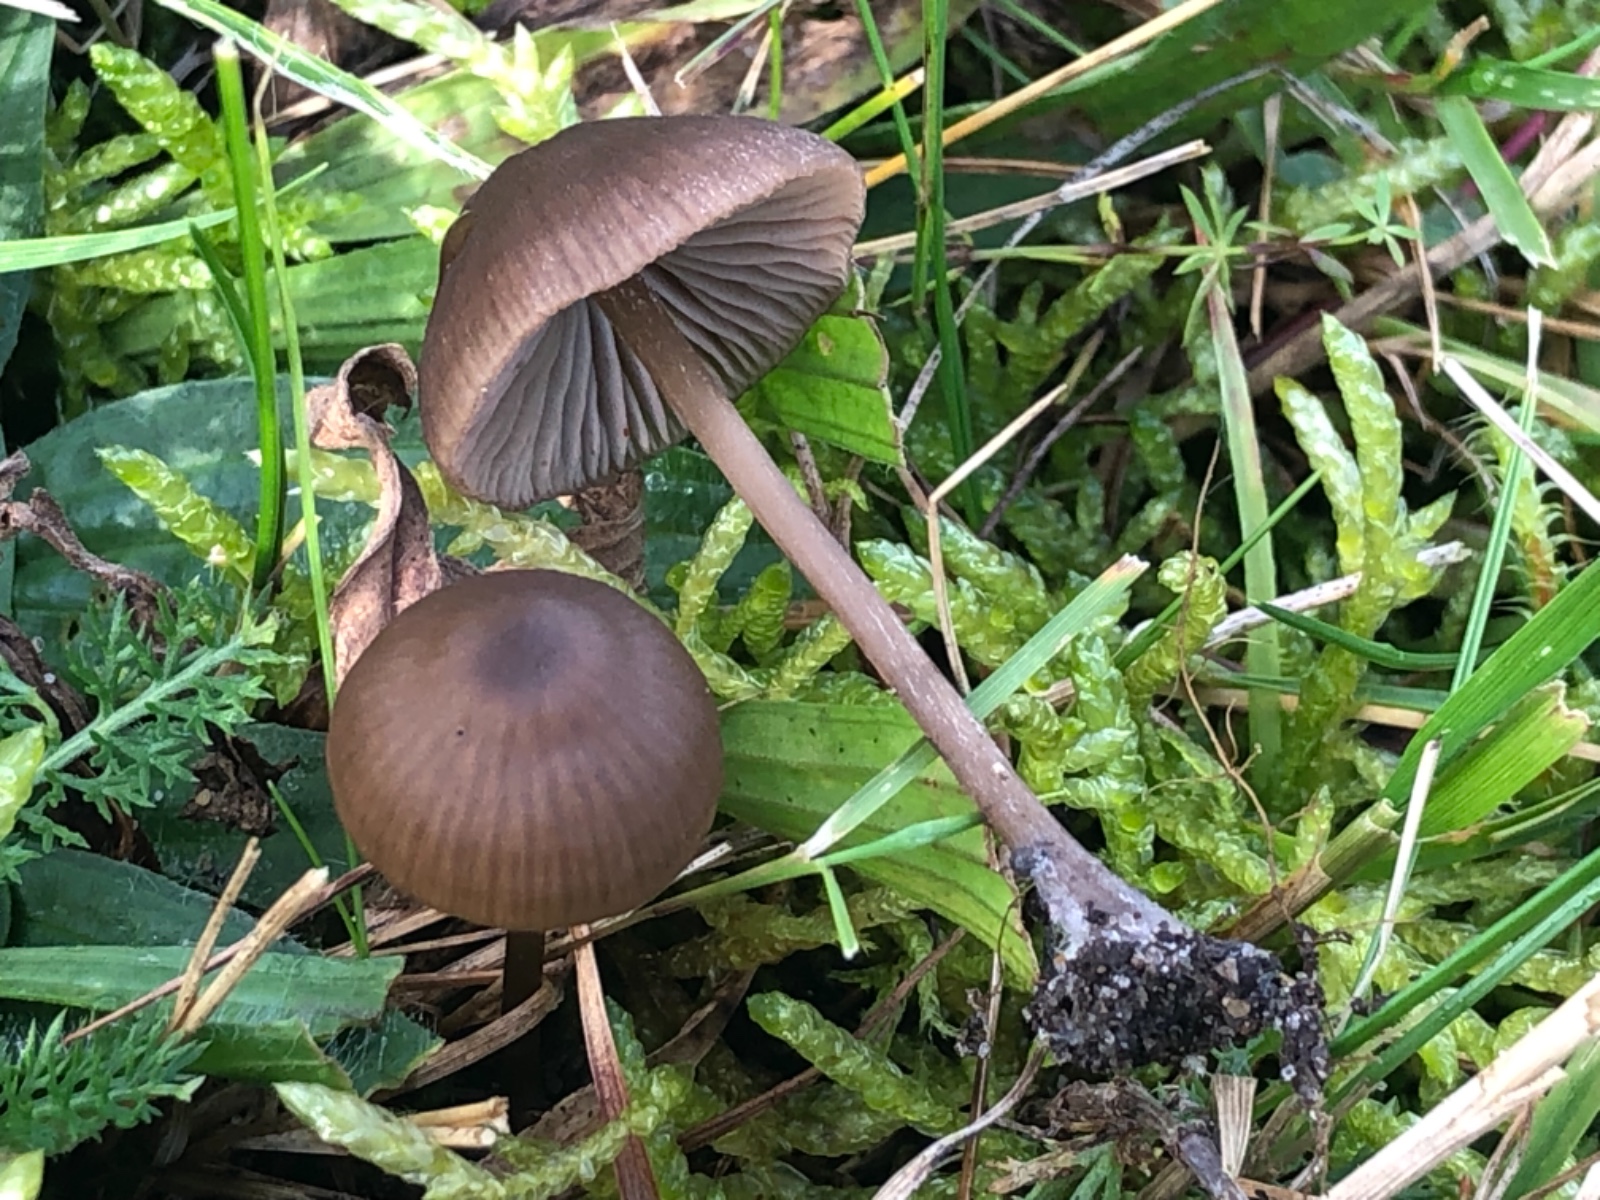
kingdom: Fungi
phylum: Basidiomycota
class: Agaricomycetes
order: Agaricales
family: Entolomataceae
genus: Entoloma
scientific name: Entoloma clandestinum
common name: tykbladet rødblad
